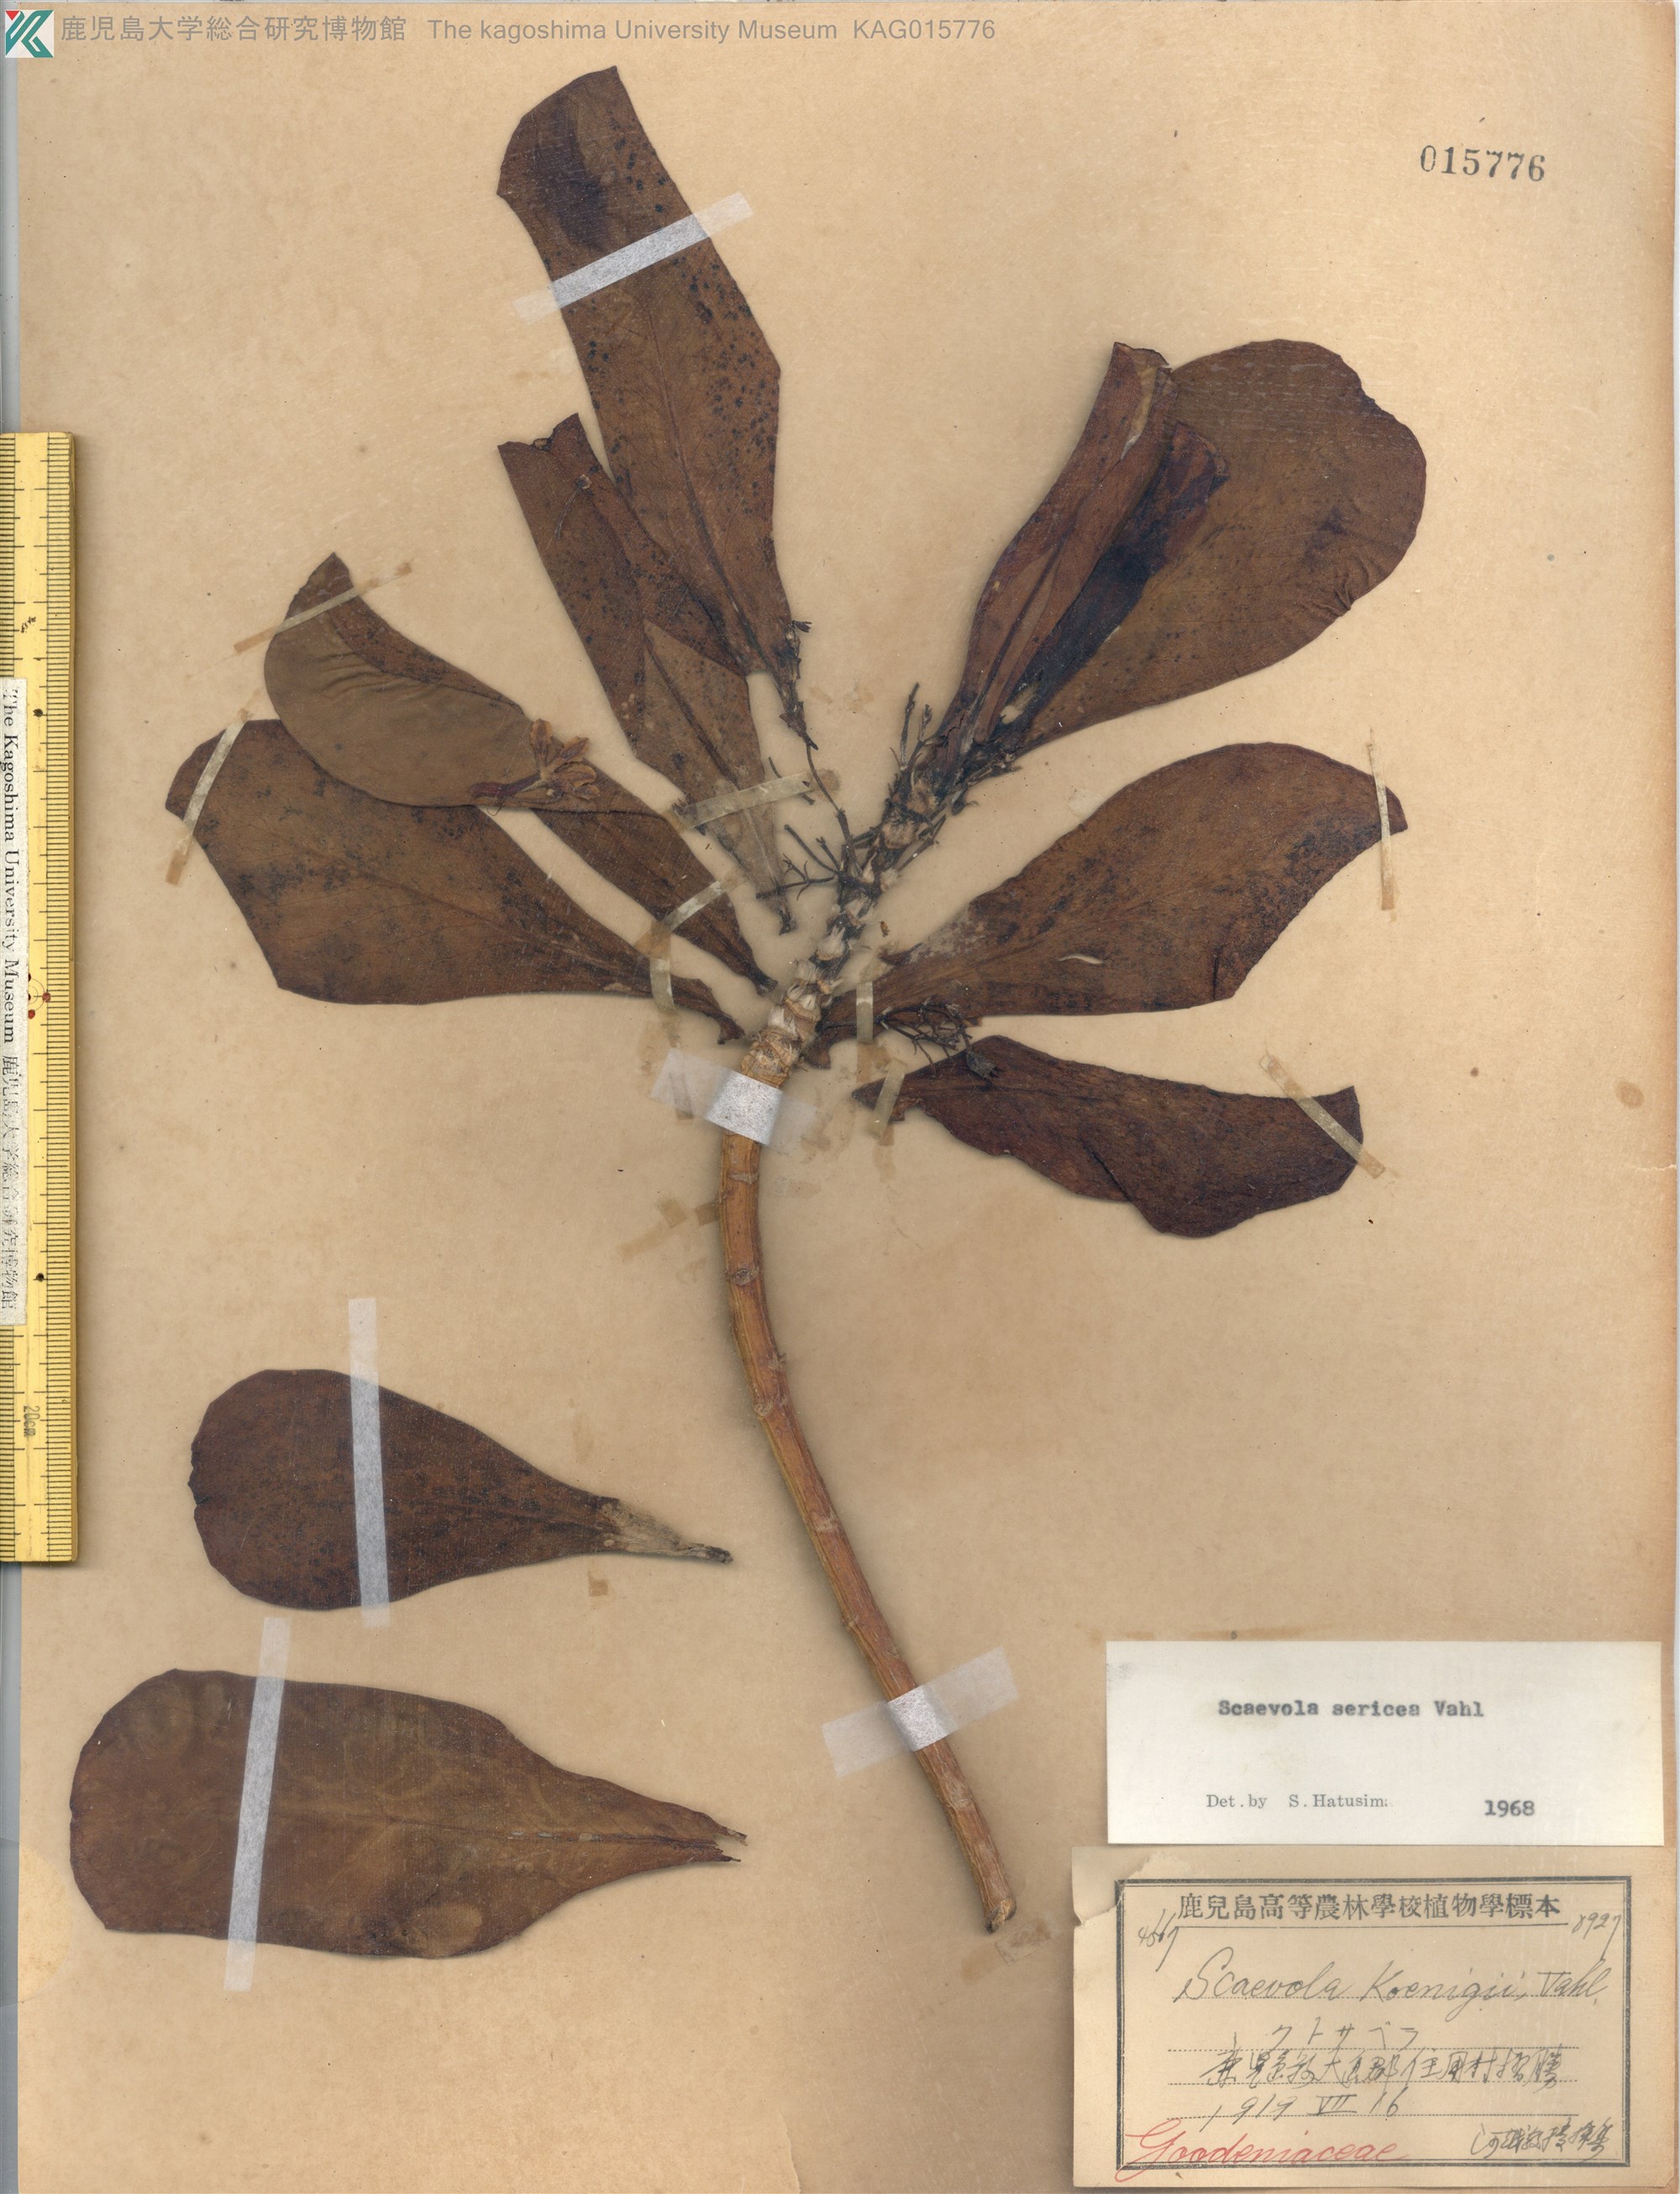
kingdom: Plantae
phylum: Tracheophyta
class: Magnoliopsida
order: Asterales
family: Goodeniaceae
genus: Scaevola
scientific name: Scaevola taccada
